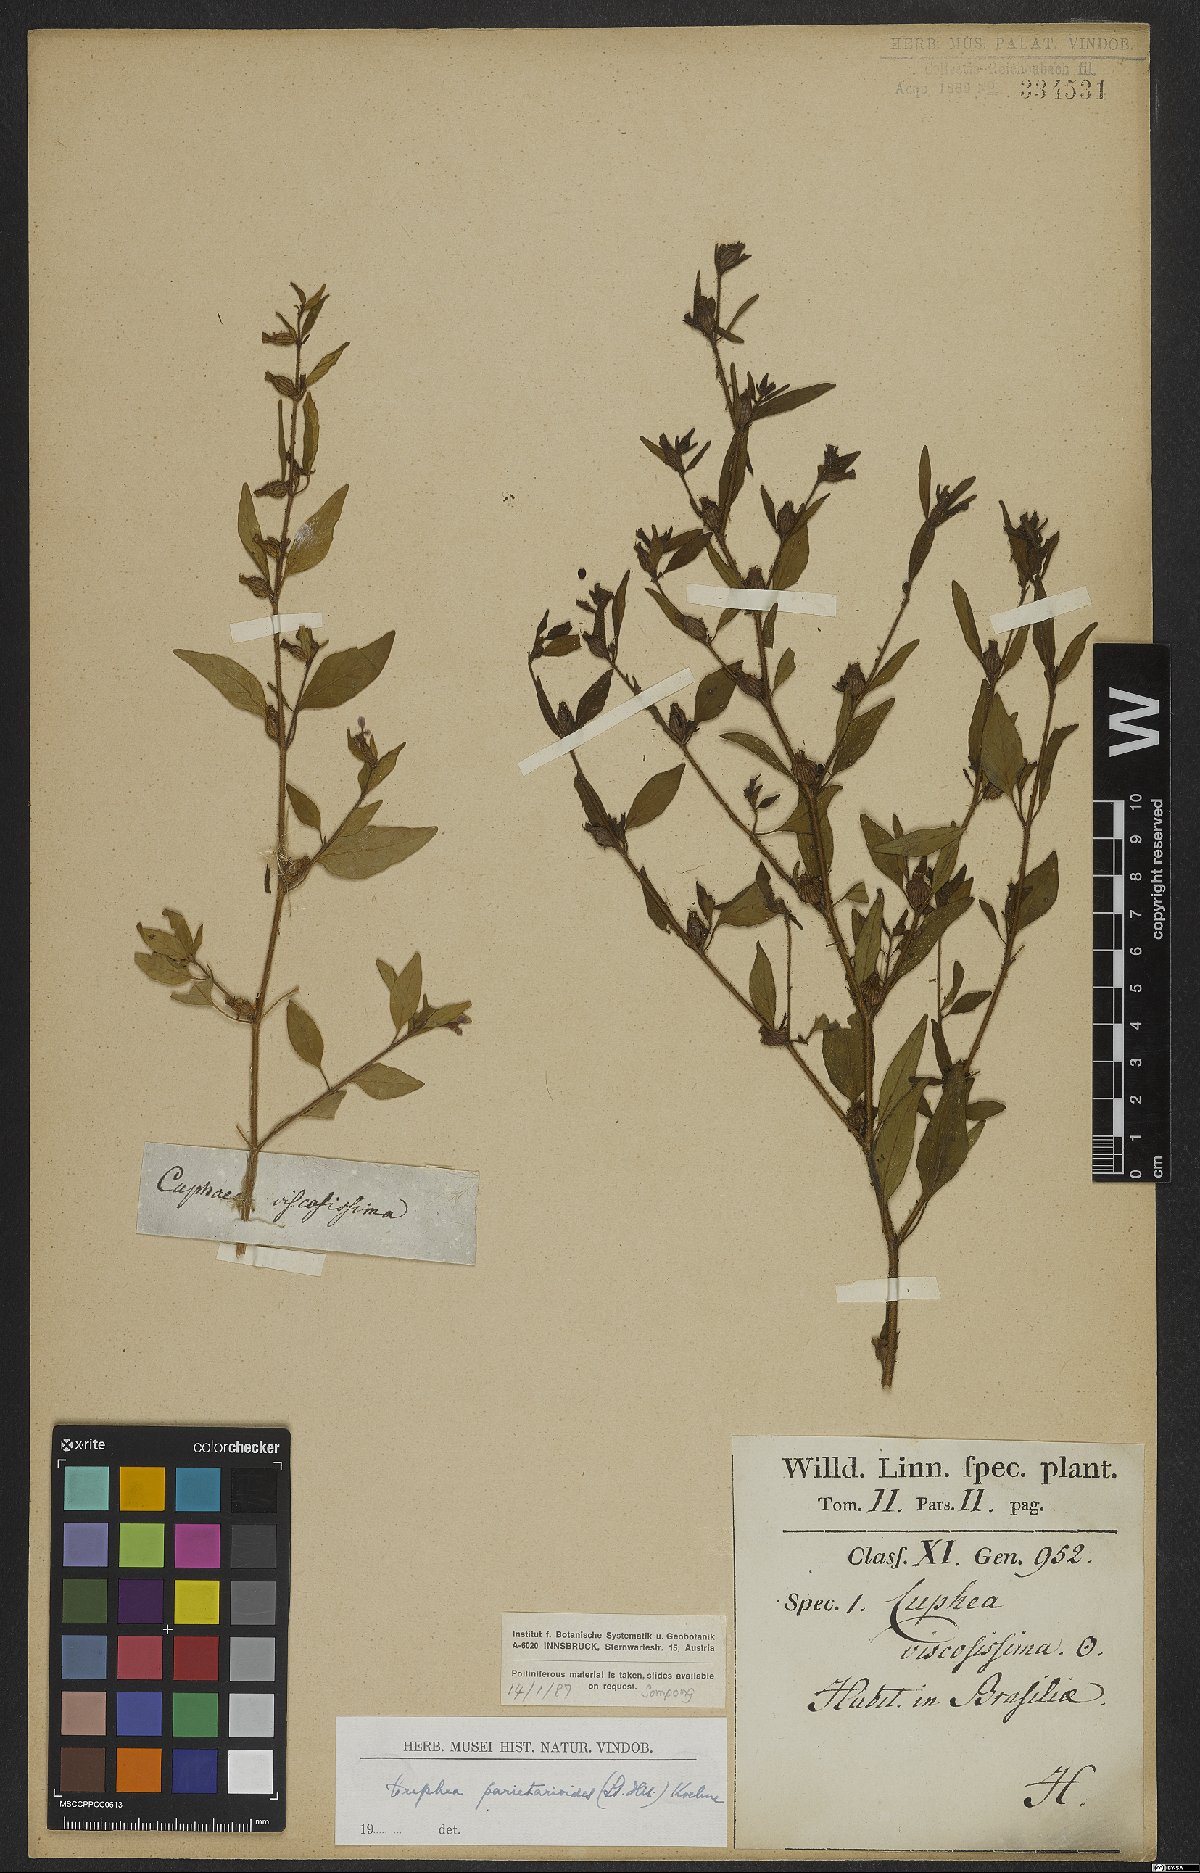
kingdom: Plantae
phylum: Tracheophyta
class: Magnoliopsida
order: Myrtales
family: Lythraceae
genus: Cuphea
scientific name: Cuphea
